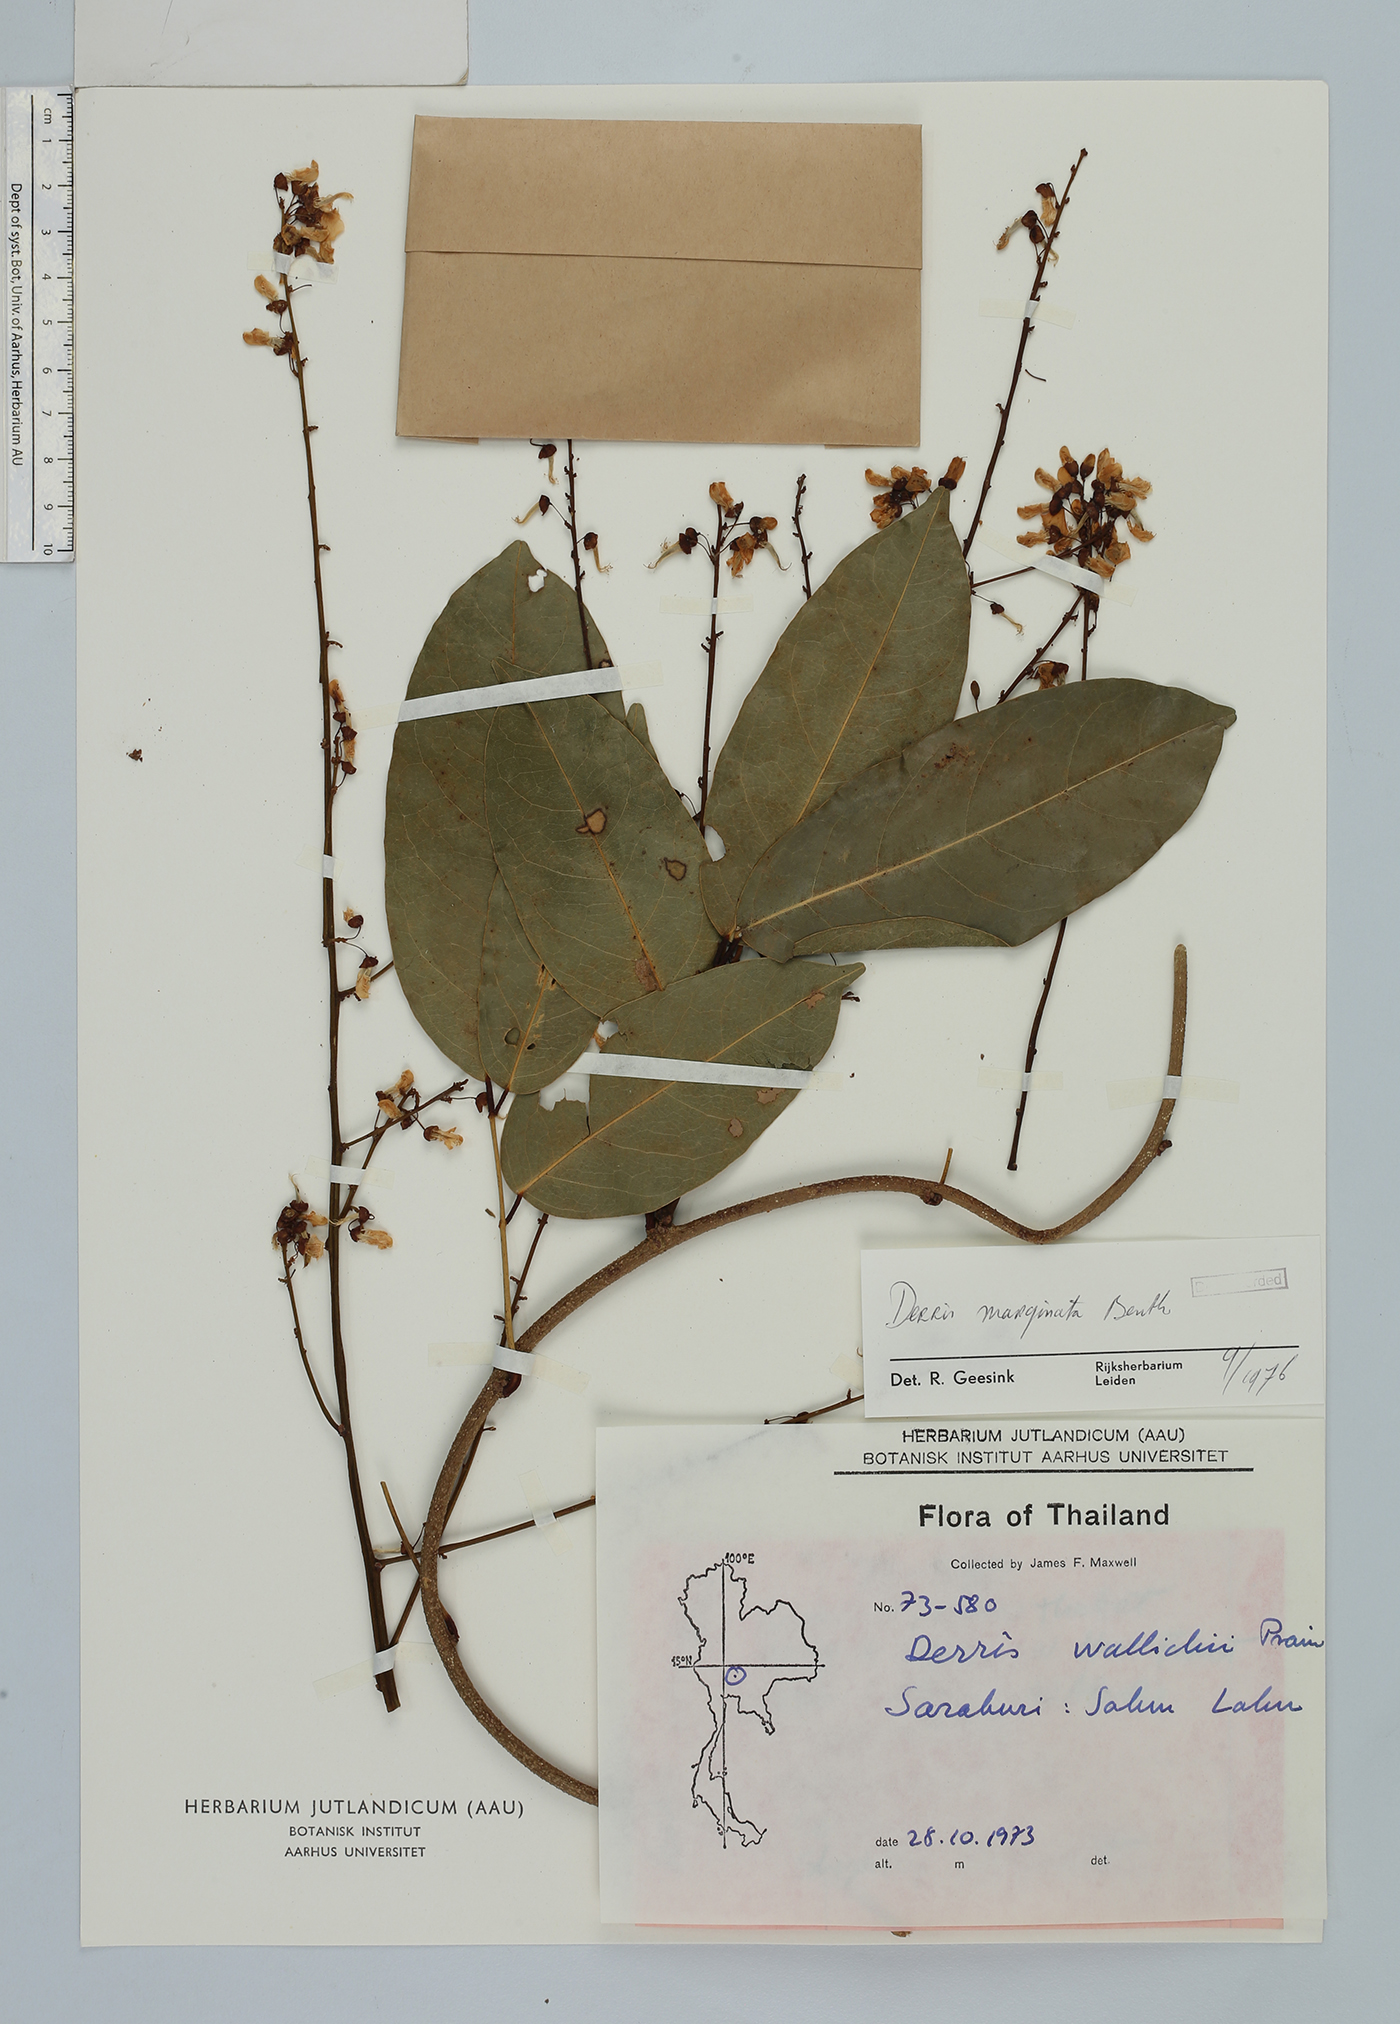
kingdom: Plantae
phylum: Tracheophyta
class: Magnoliopsida
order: Fabales
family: Fabaceae
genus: Derris
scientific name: Derris marginata
